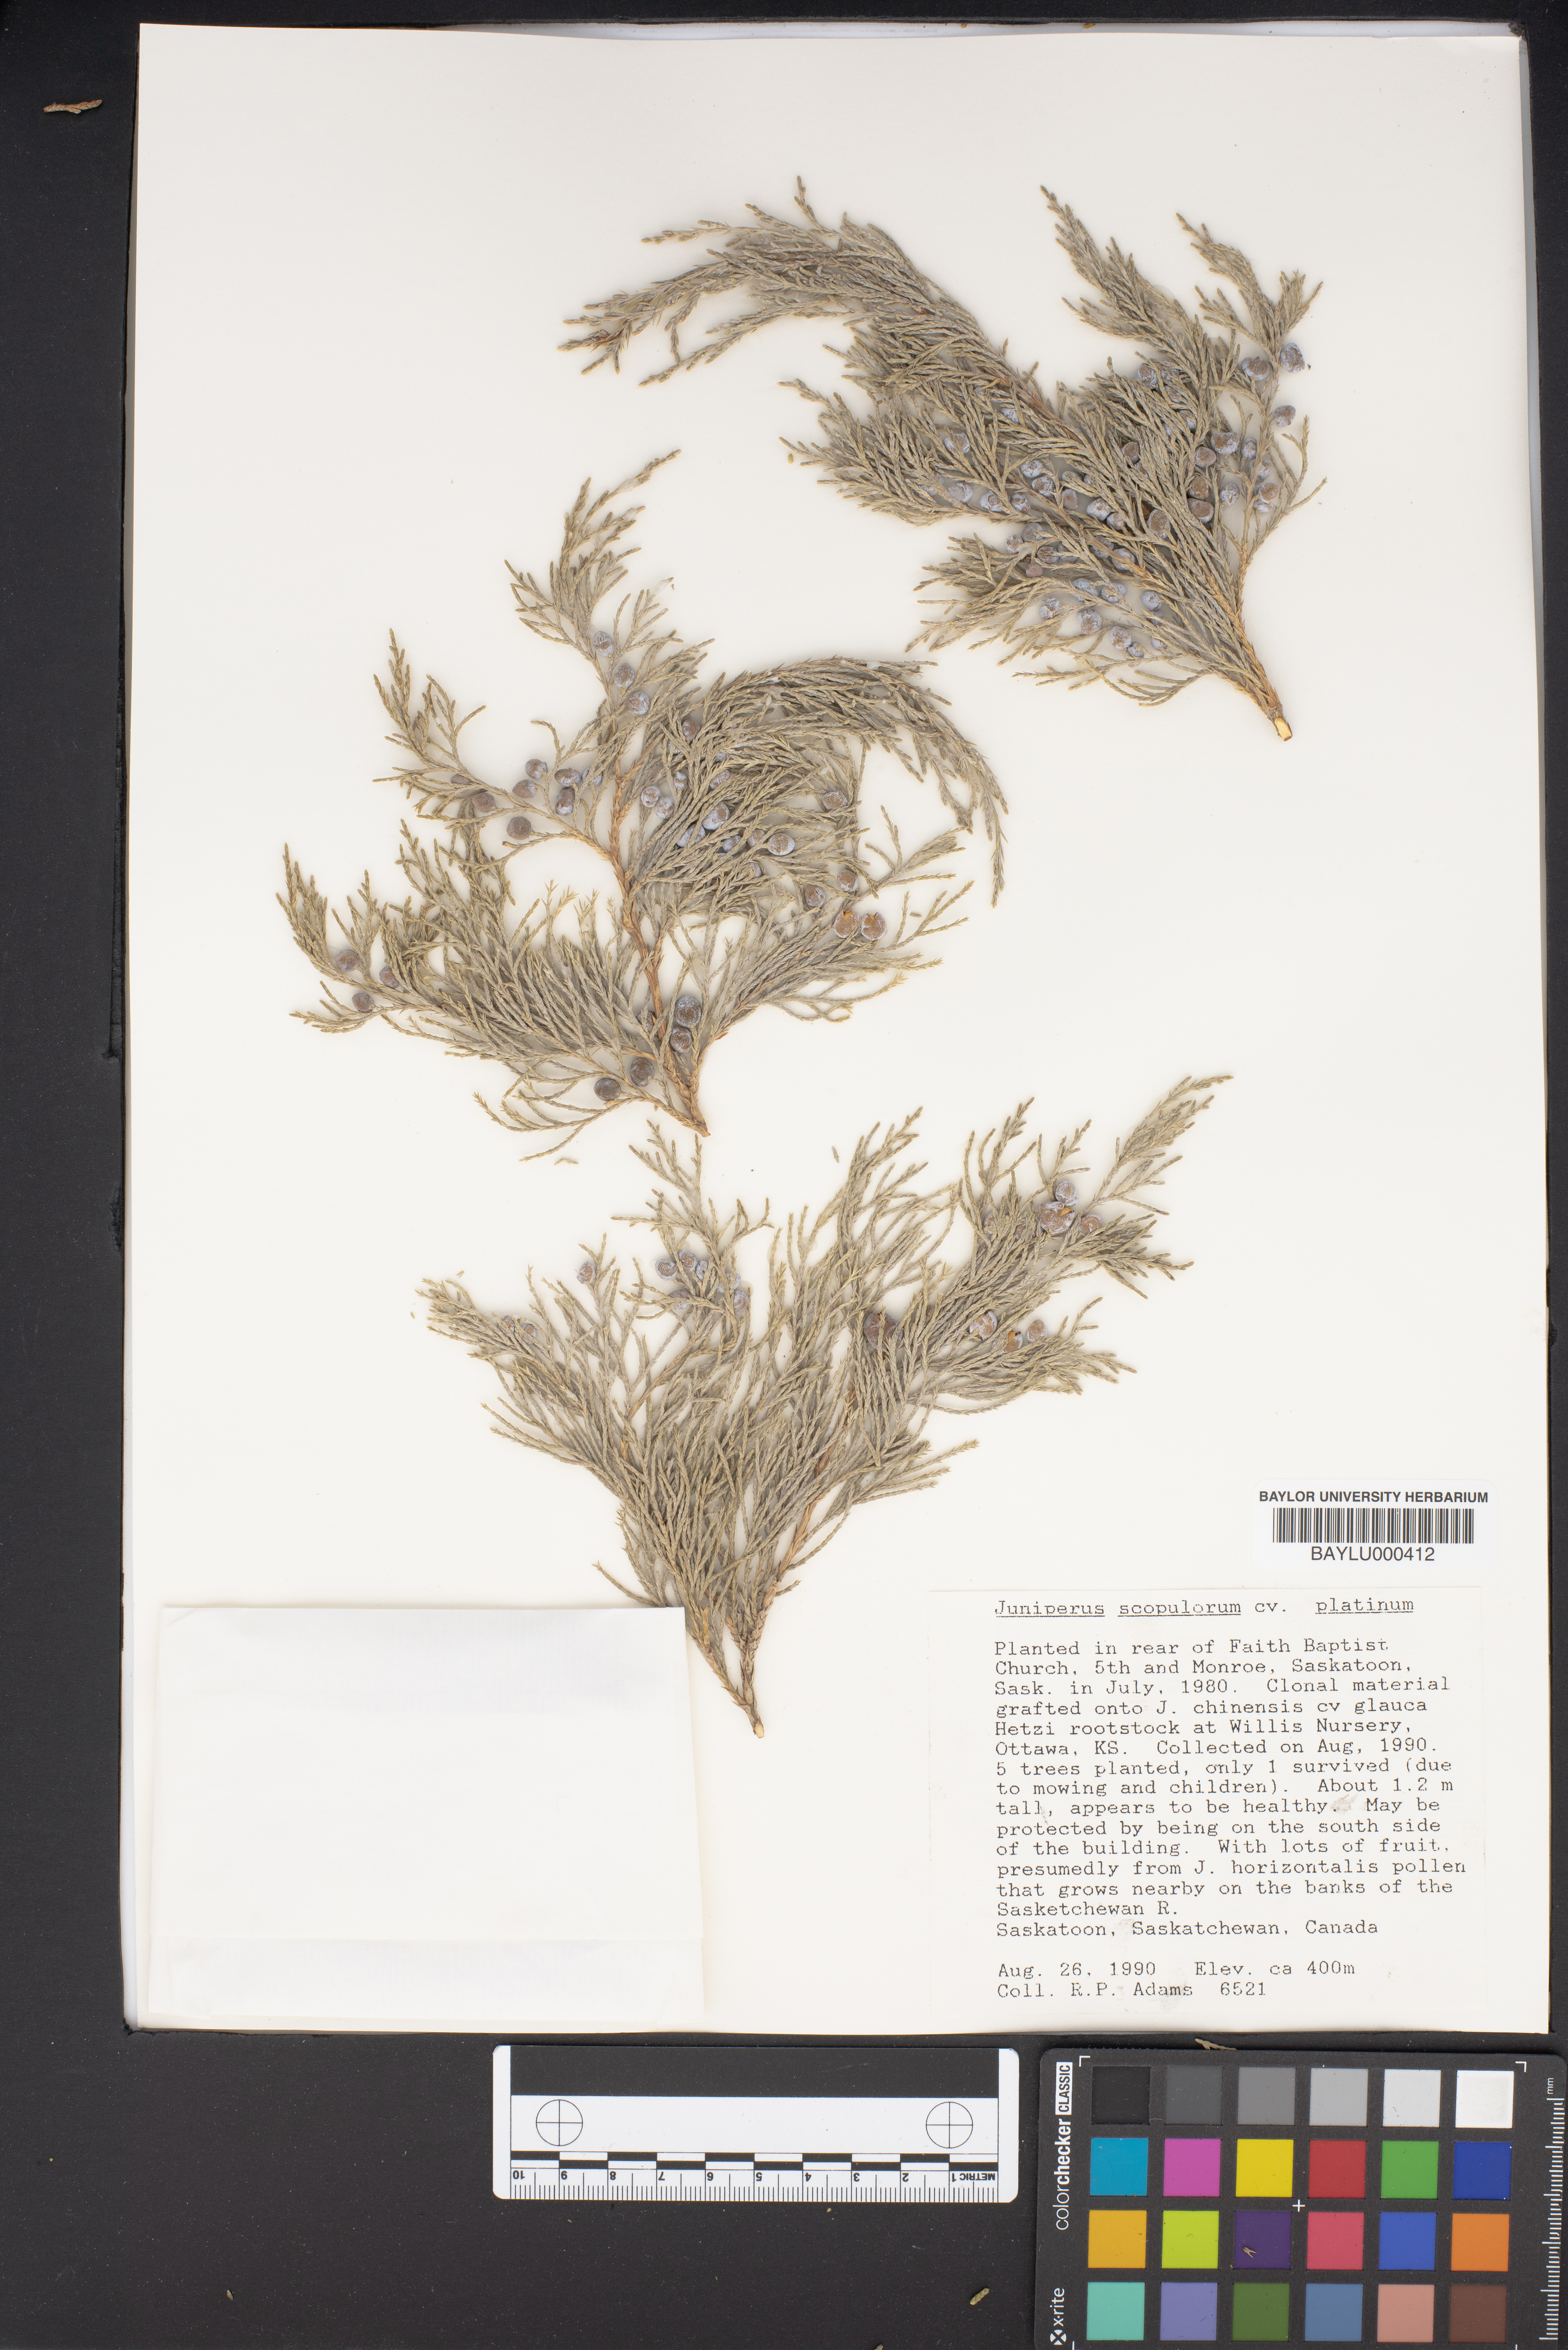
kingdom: Plantae
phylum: Tracheophyta
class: Pinopsida
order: Pinales
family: Cupressaceae
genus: Juniperus
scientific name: Juniperus scopulorum
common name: Rocky mountain juniper
